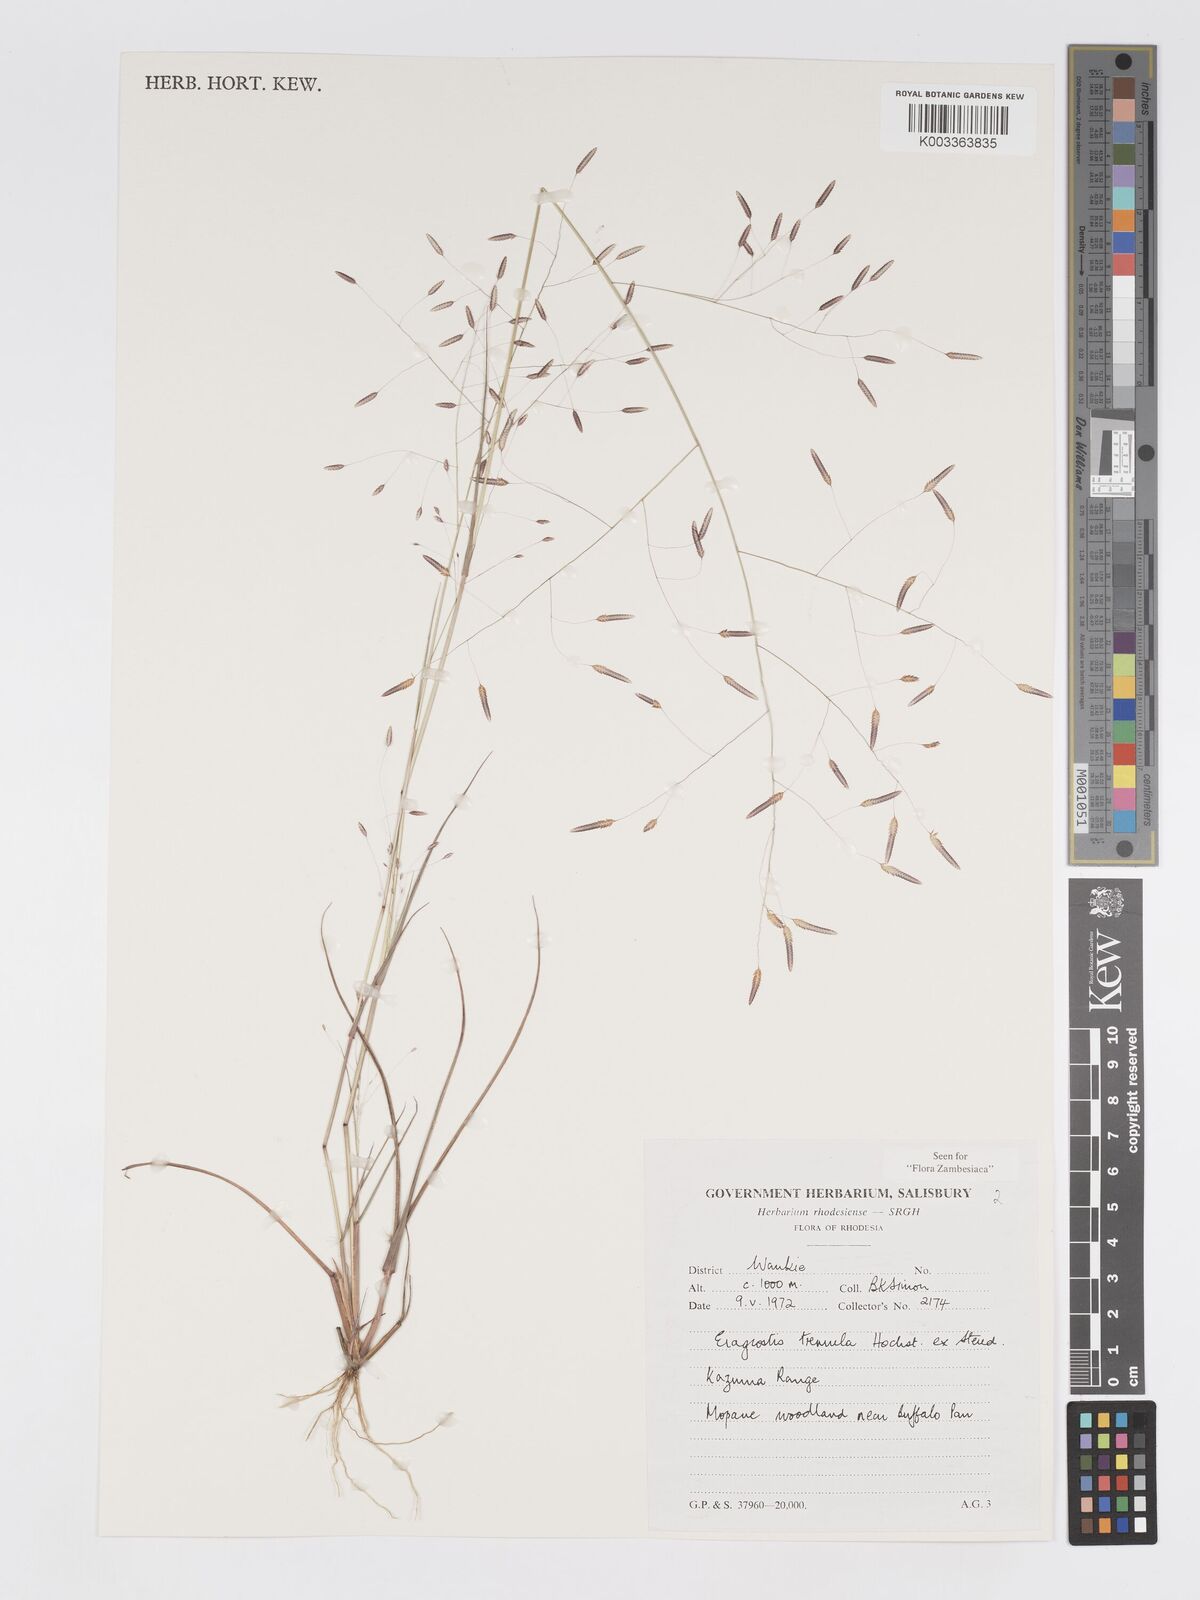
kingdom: Plantae
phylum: Tracheophyta
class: Liliopsida
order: Poales
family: Poaceae
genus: Eragrostis
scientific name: Eragrostis tremula
